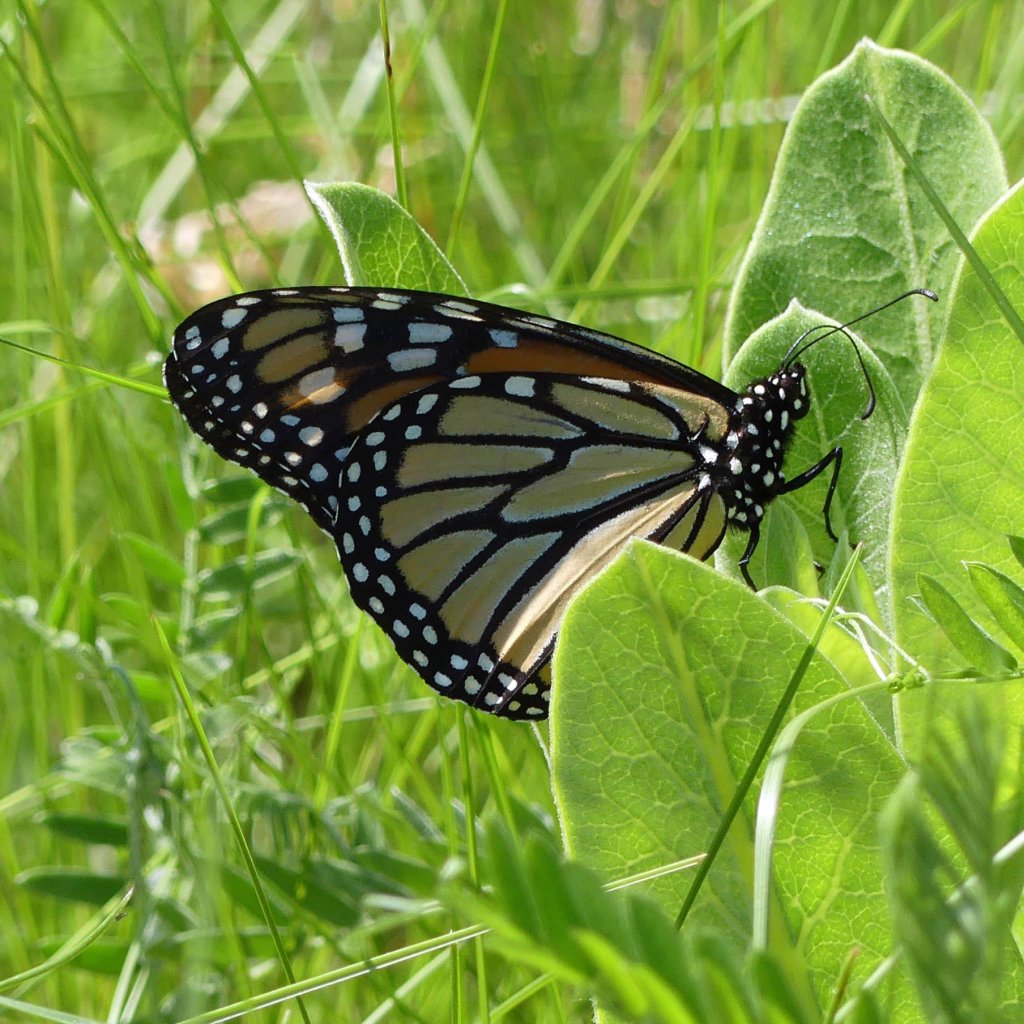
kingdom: Animalia
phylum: Arthropoda
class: Insecta
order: Lepidoptera
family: Nymphalidae
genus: Danaus
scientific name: Danaus plexippus
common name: Monarch
